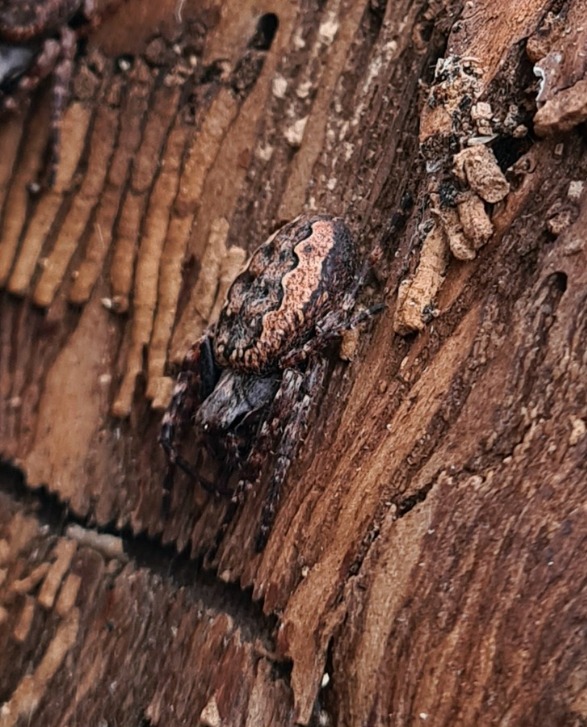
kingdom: Animalia
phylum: Arthropoda
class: Arachnida
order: Araneae
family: Araneidae
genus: Nuctenea
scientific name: Nuctenea umbratica
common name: Flad hjulspinder
